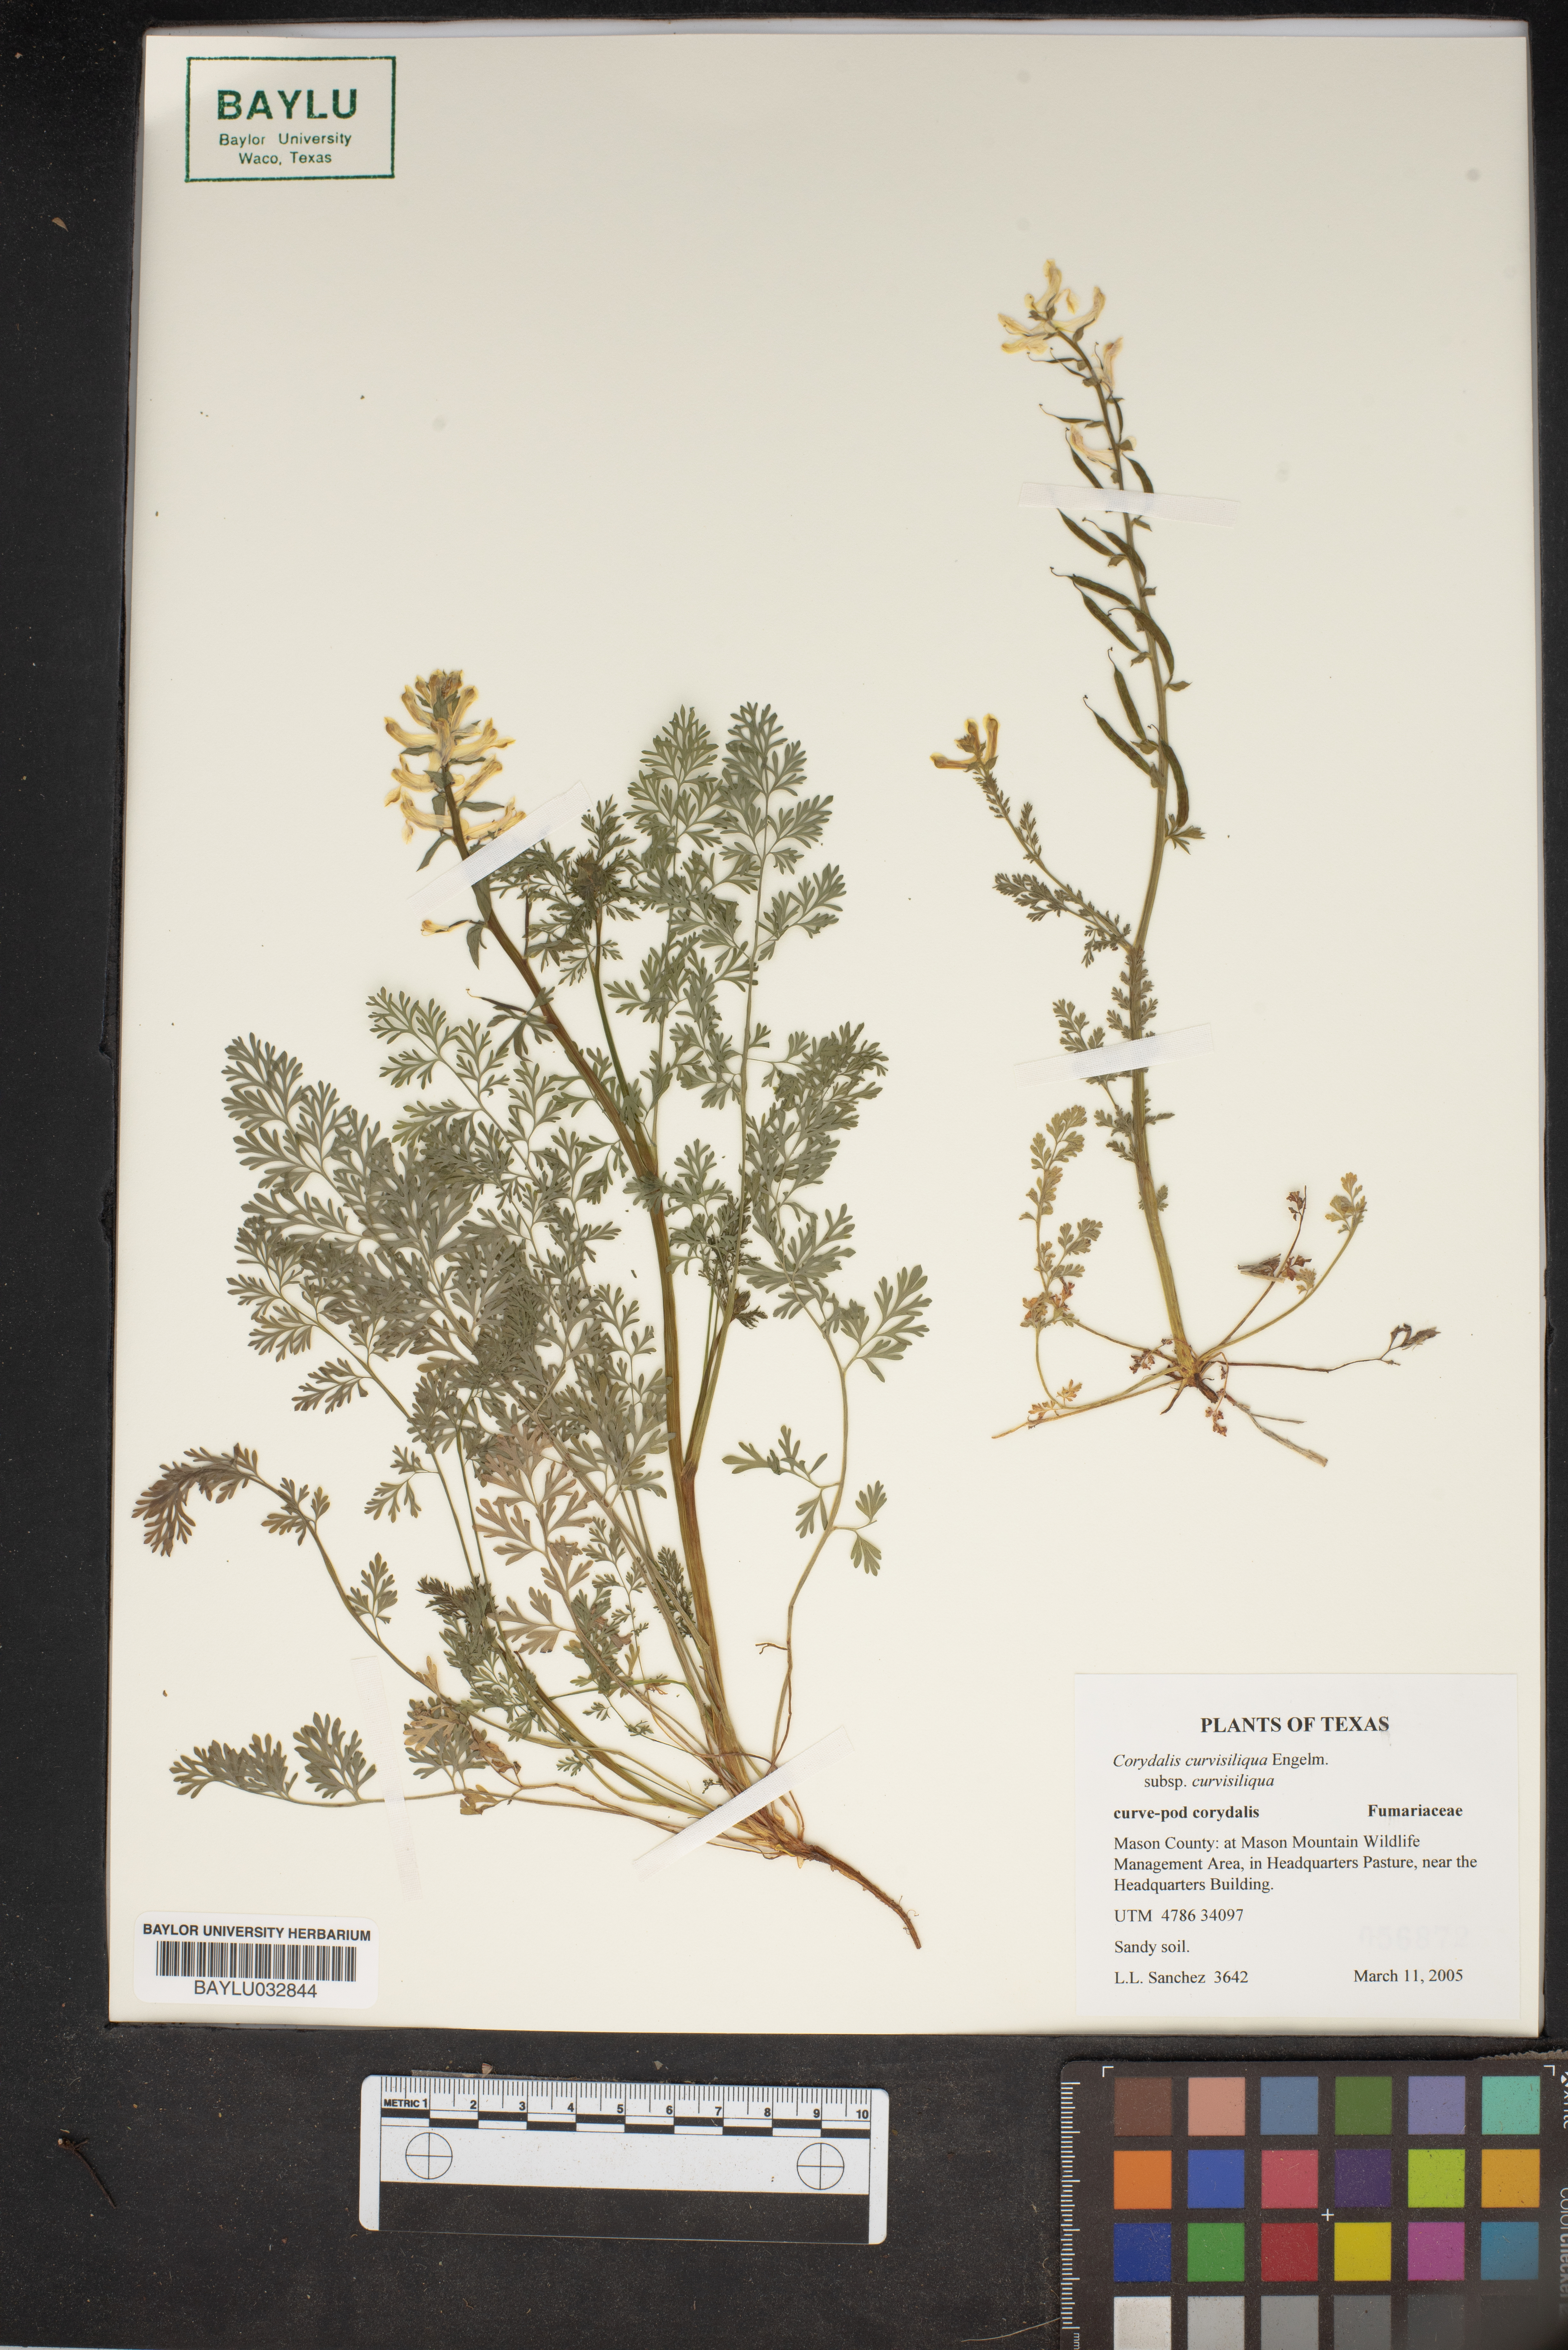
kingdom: Plantae
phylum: Tracheophyta
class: Magnoliopsida
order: Ranunculales
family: Papaveraceae
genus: Corydalis
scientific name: Corydalis curvisiliqua
